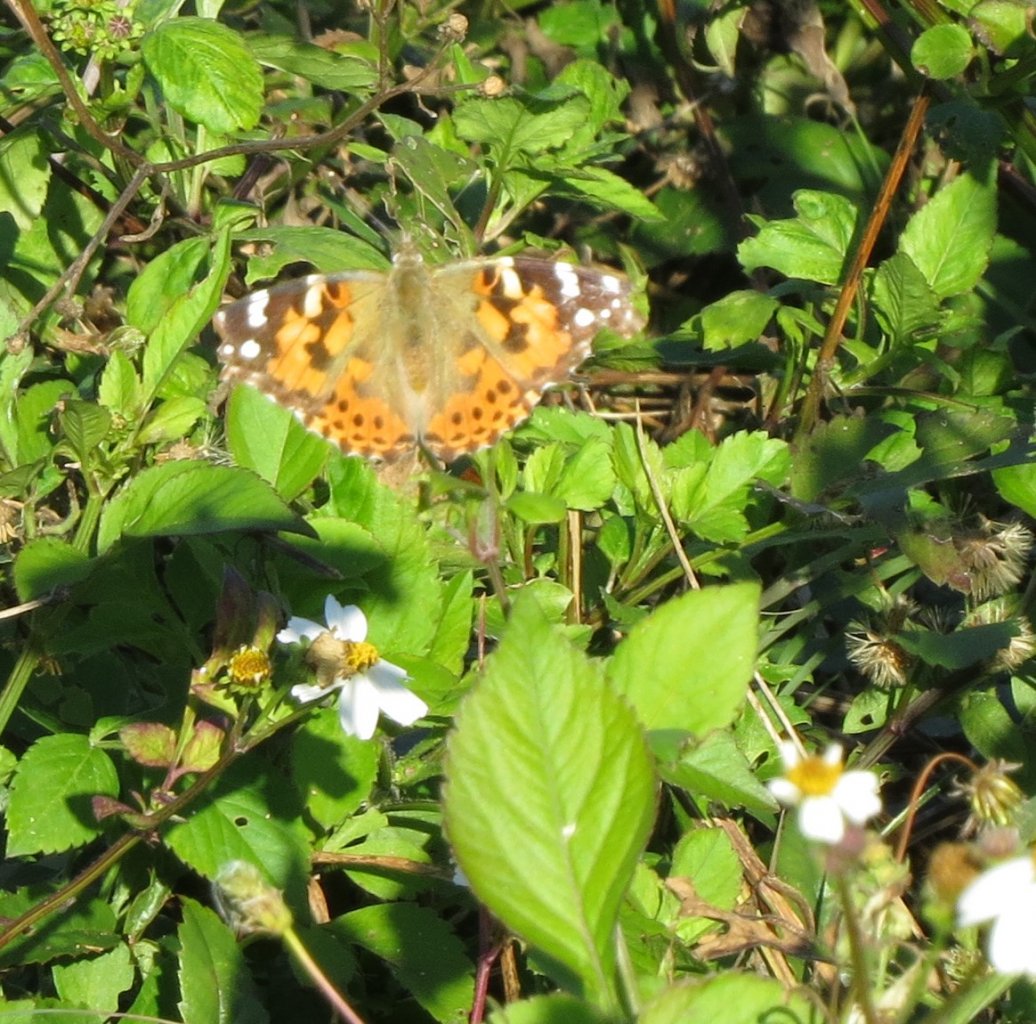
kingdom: Animalia
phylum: Arthropoda
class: Insecta
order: Lepidoptera
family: Nymphalidae
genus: Vanessa
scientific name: Vanessa cardui
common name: Painted Lady
